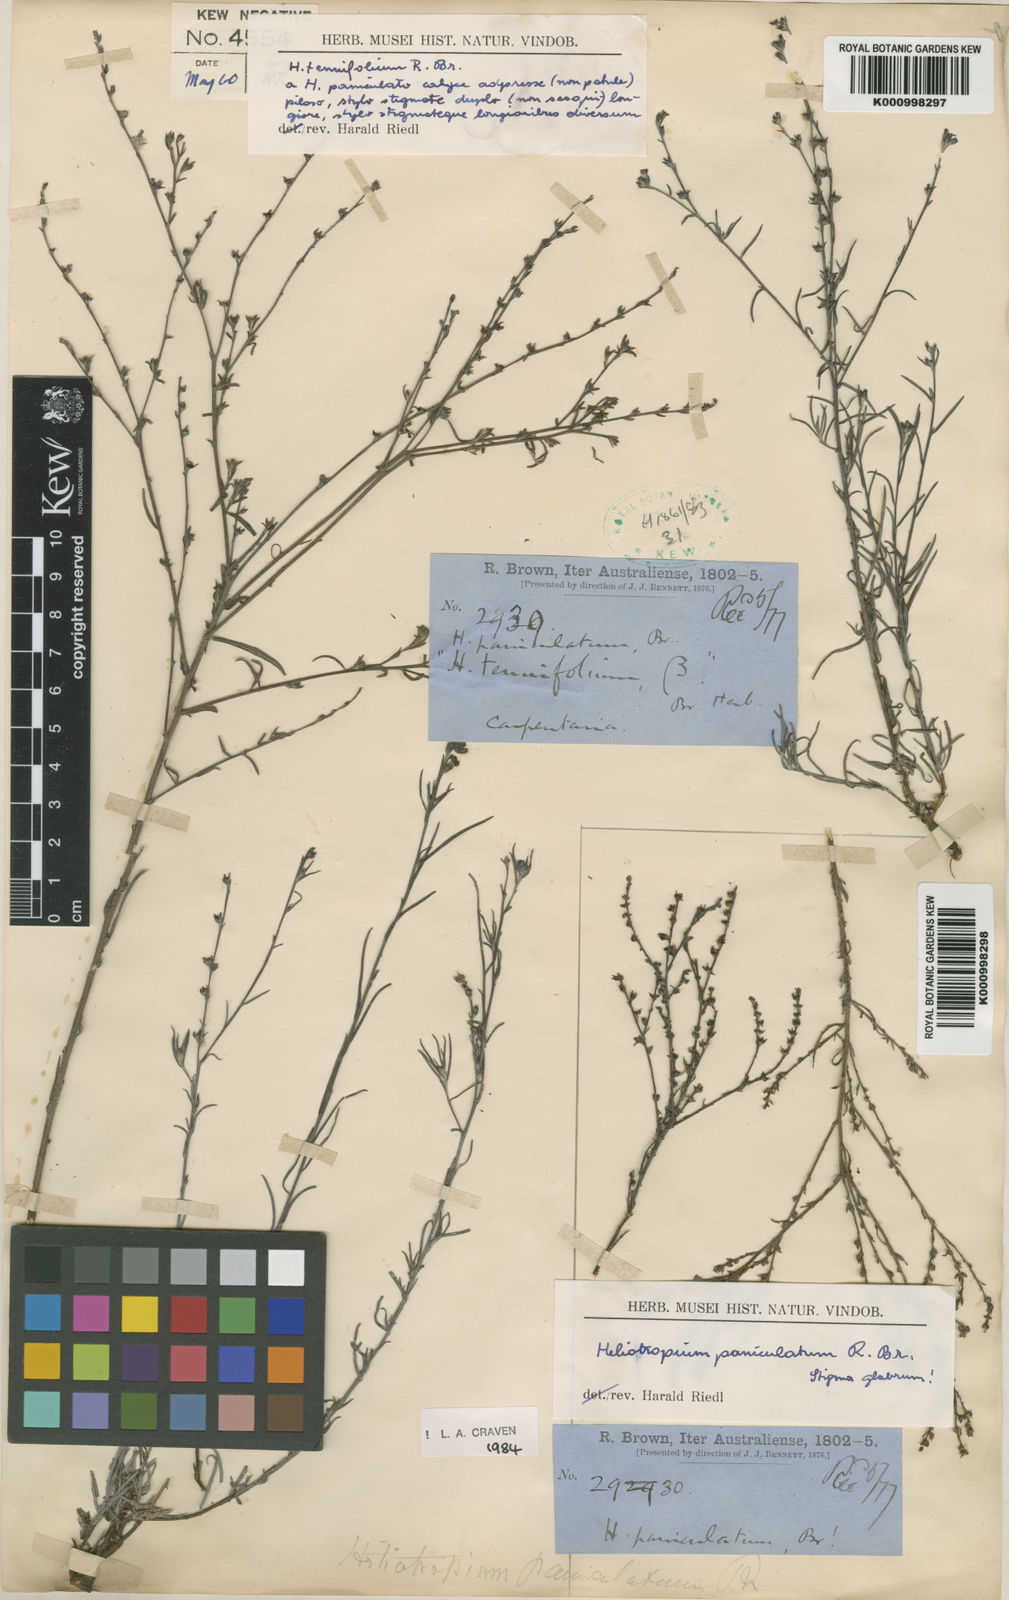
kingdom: Plantae
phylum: Tracheophyta
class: Magnoliopsida
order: Boraginales
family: Heliotropiaceae
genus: Euploca
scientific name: Euploca paniculata
